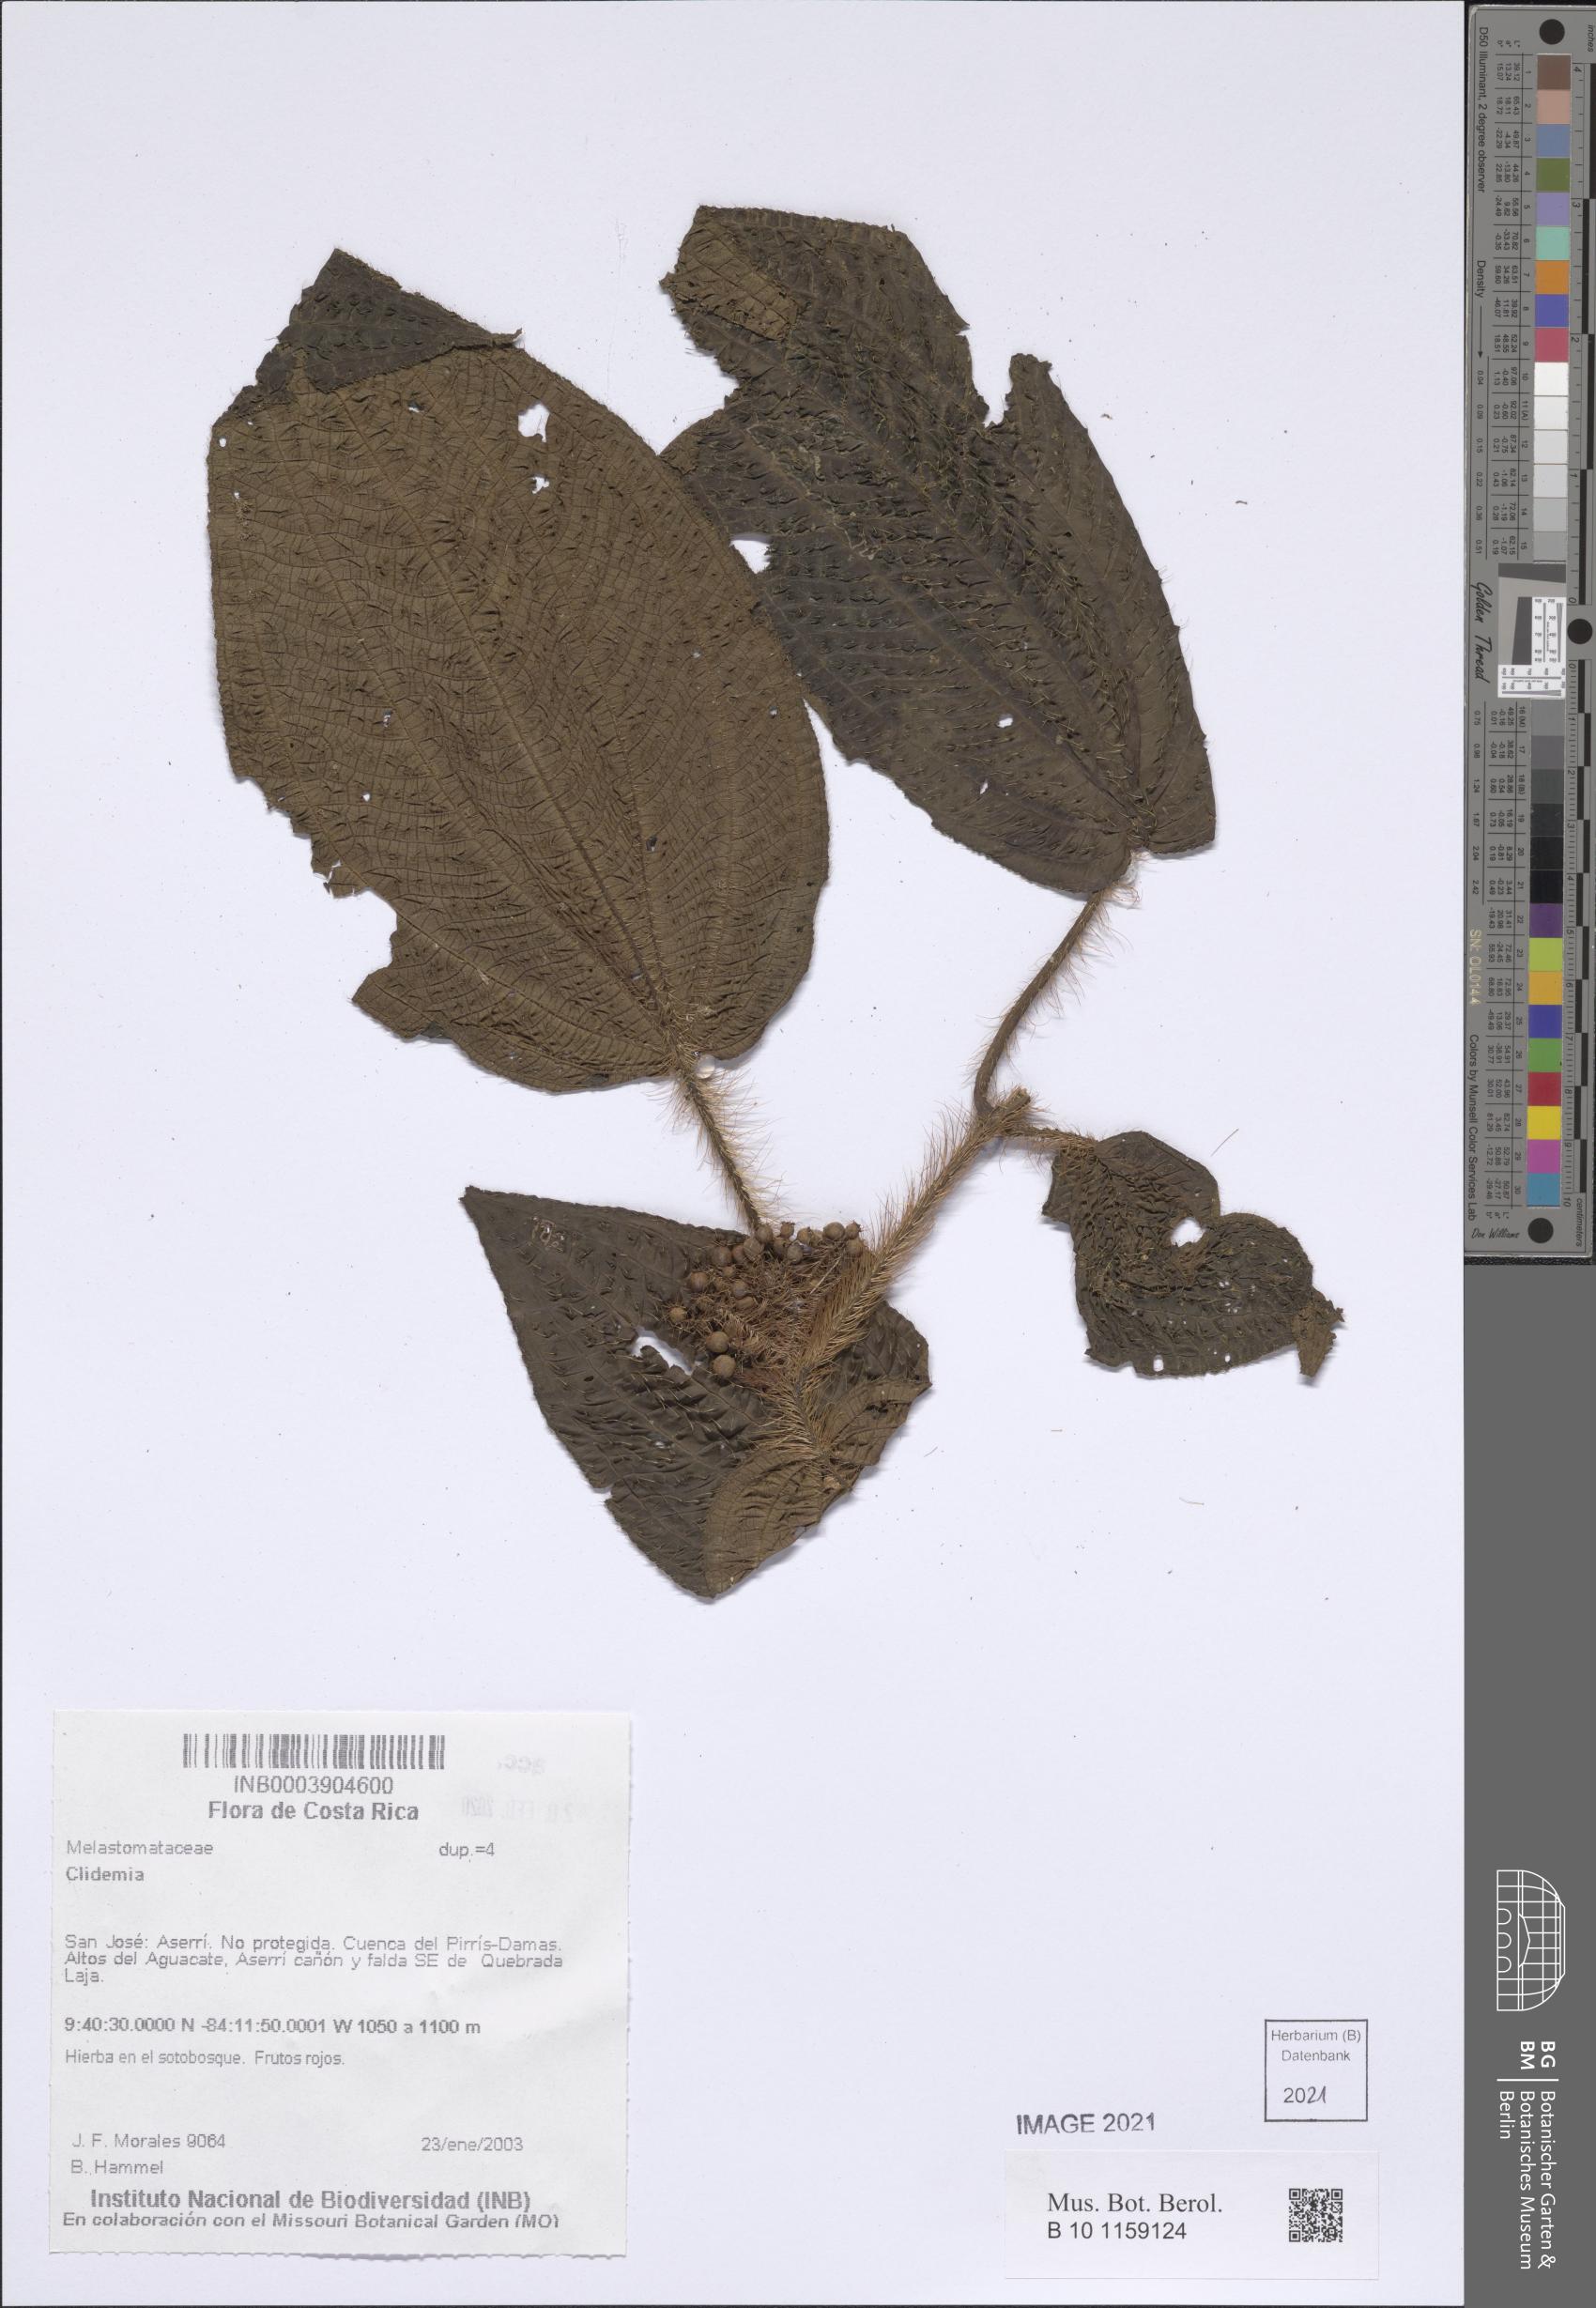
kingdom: Plantae
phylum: Tracheophyta
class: Magnoliopsida
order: Myrtales
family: Melastomataceae
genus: Miconia
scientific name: Miconia
